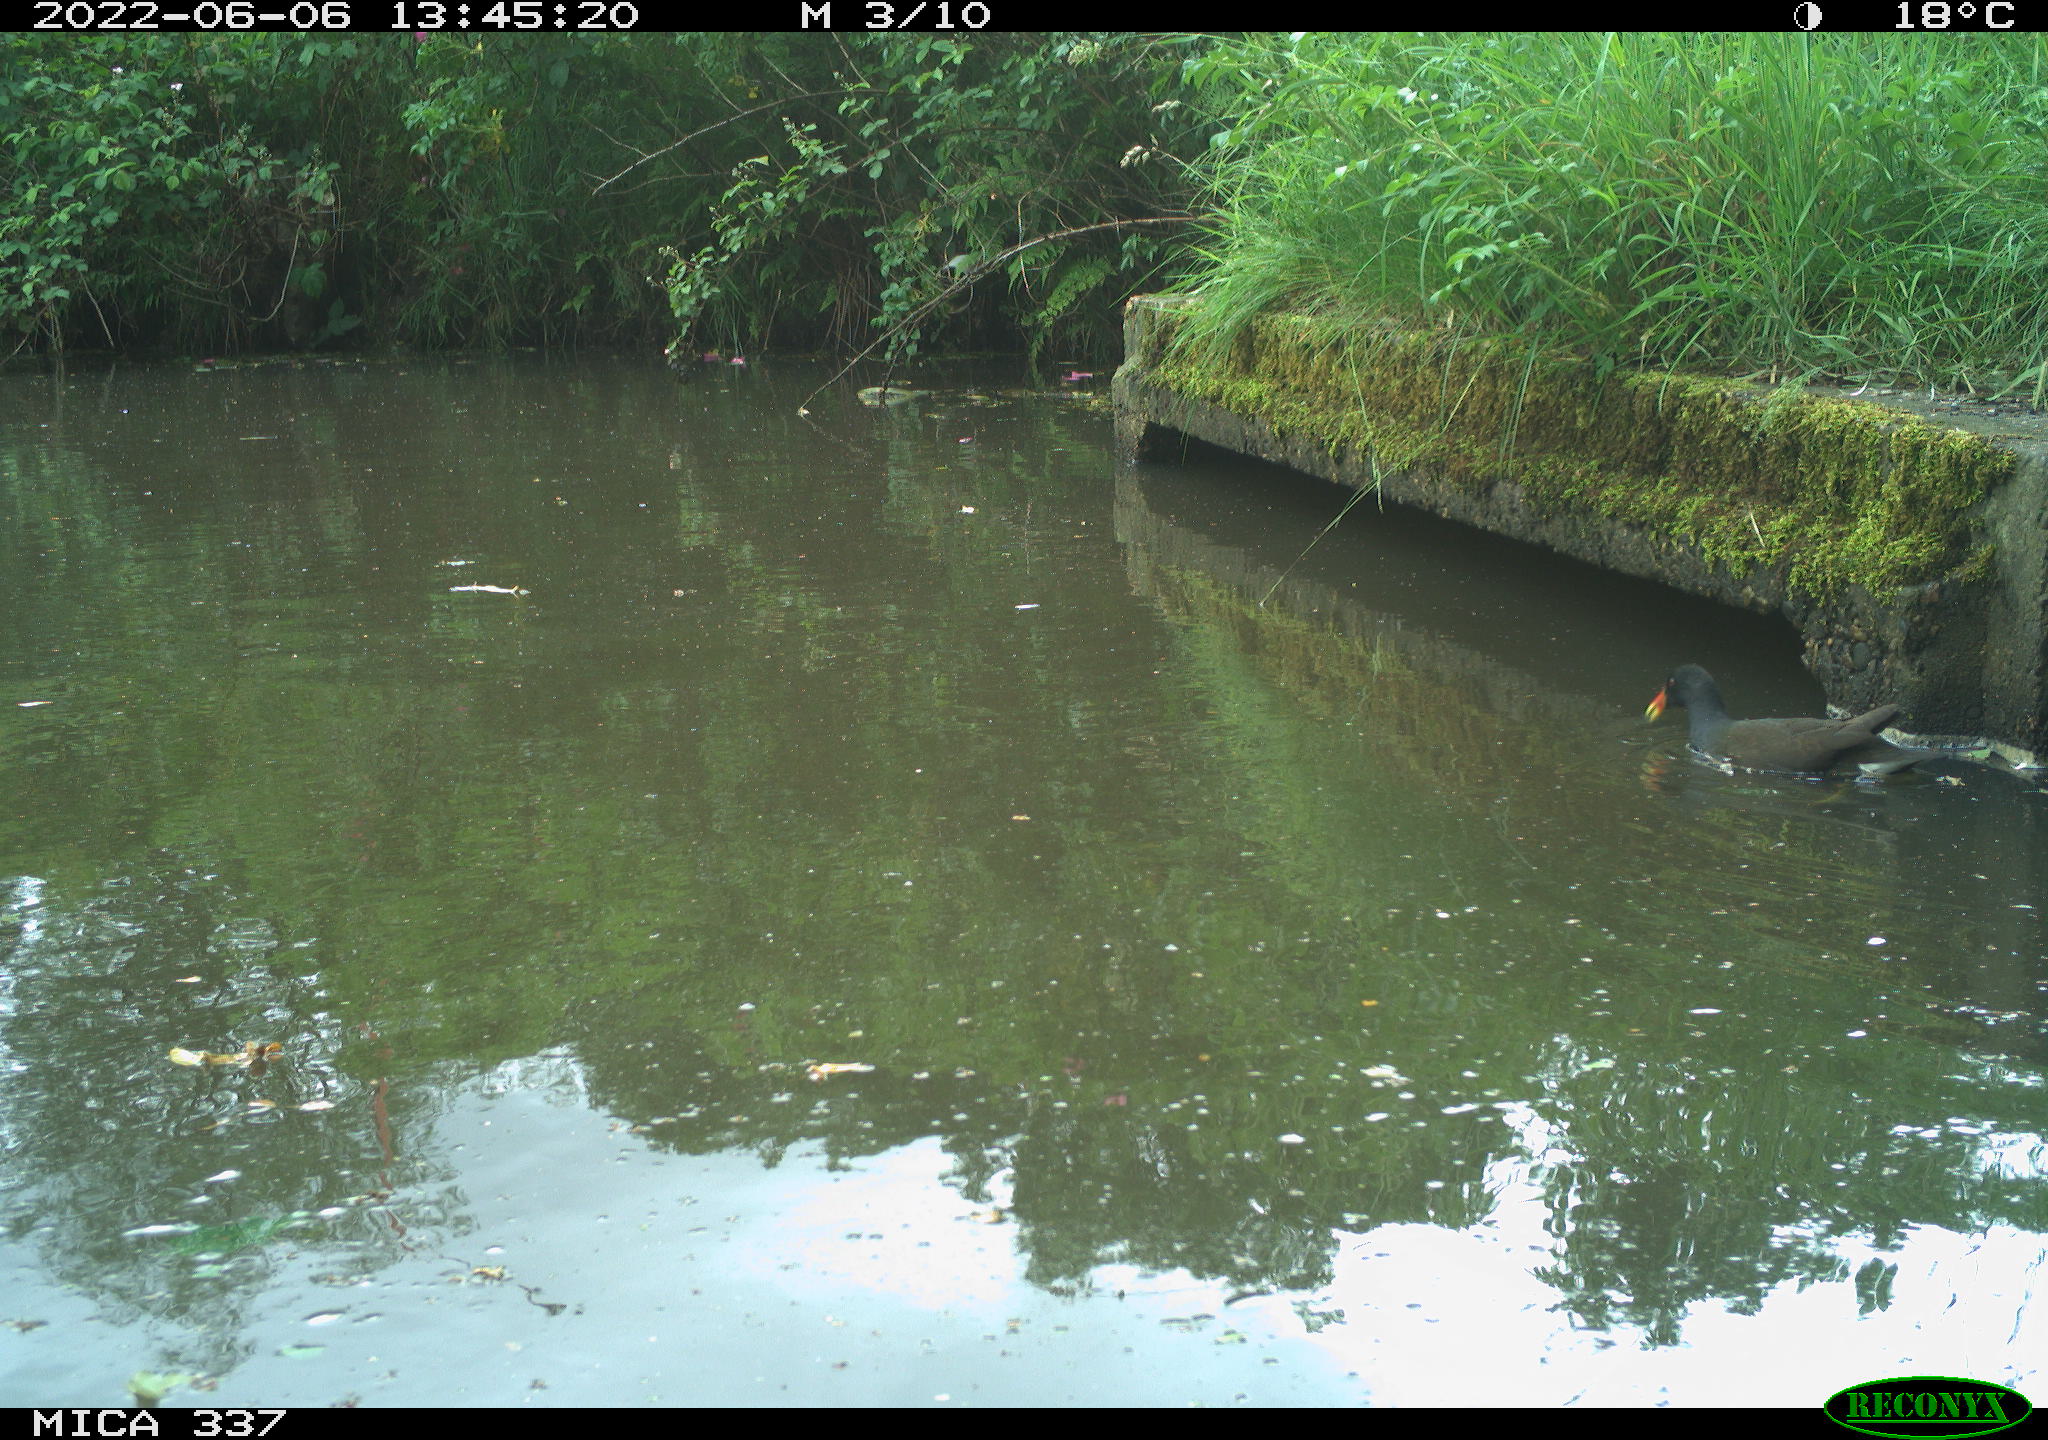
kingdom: Animalia
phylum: Chordata
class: Aves
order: Gruiformes
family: Rallidae
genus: Gallinula
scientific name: Gallinula chloropus
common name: Common moorhen
